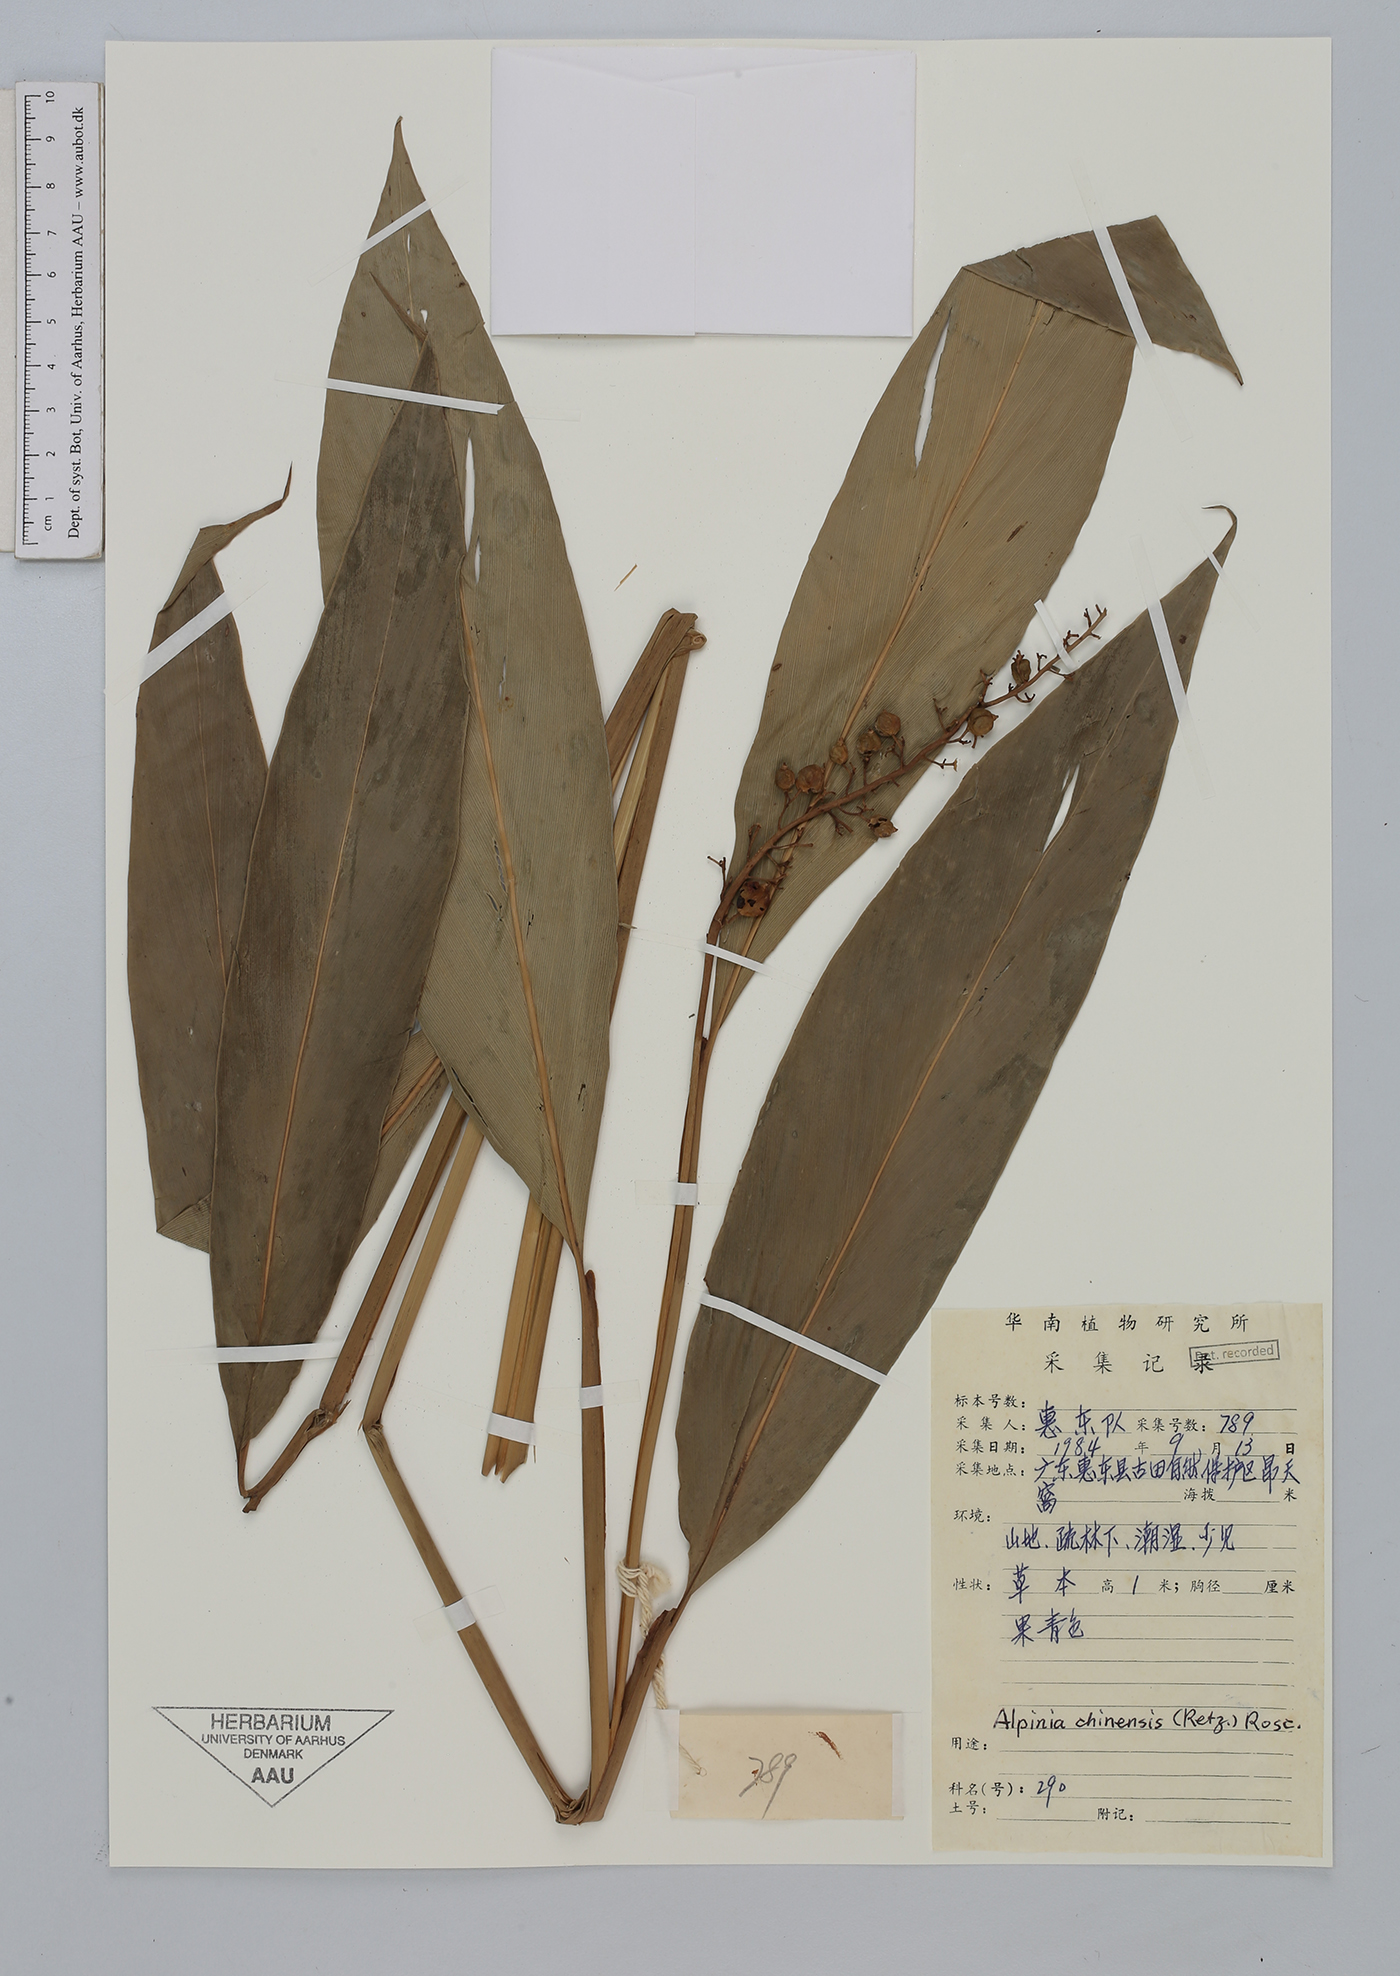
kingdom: Plantae
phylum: Tracheophyta
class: Liliopsida
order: Zingiberales
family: Zingiberaceae
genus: Alpinia
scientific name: Alpinia chinensis
